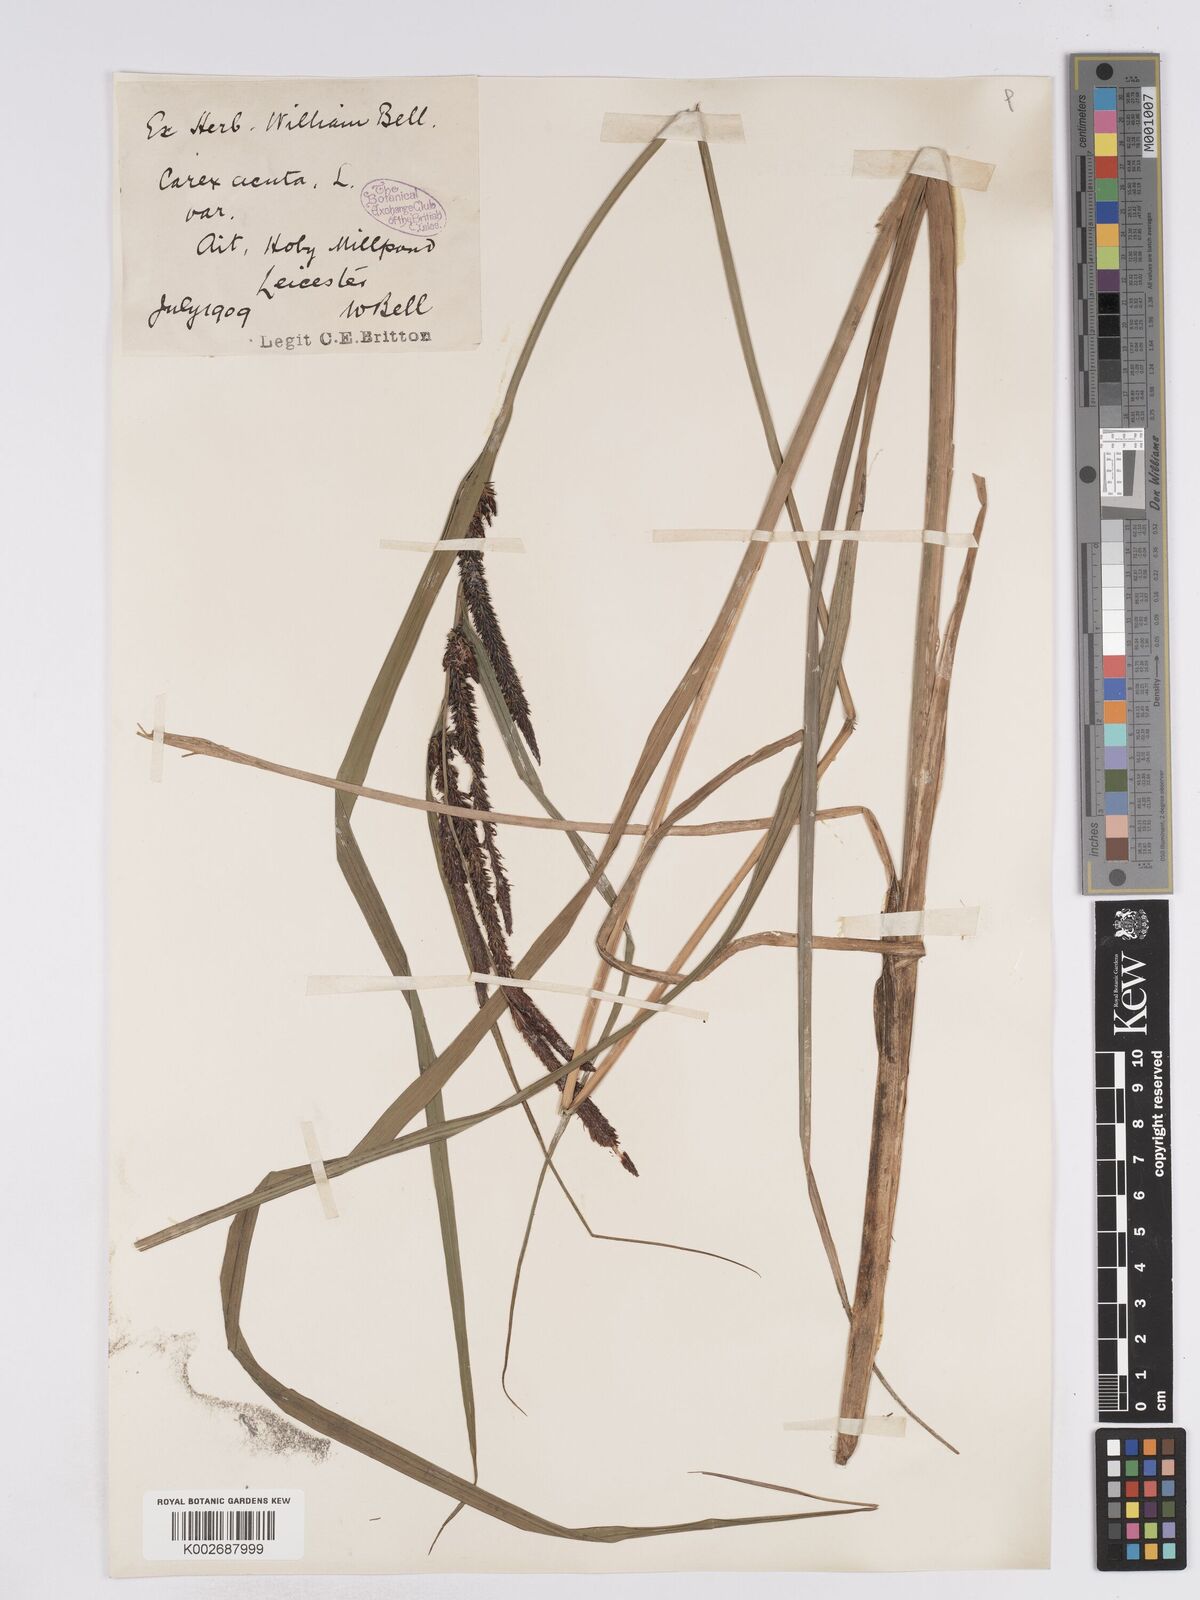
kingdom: Plantae
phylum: Tracheophyta
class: Liliopsida
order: Poales
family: Cyperaceae
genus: Carex
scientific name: Carex acuta
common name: Slender tufted-sedge
